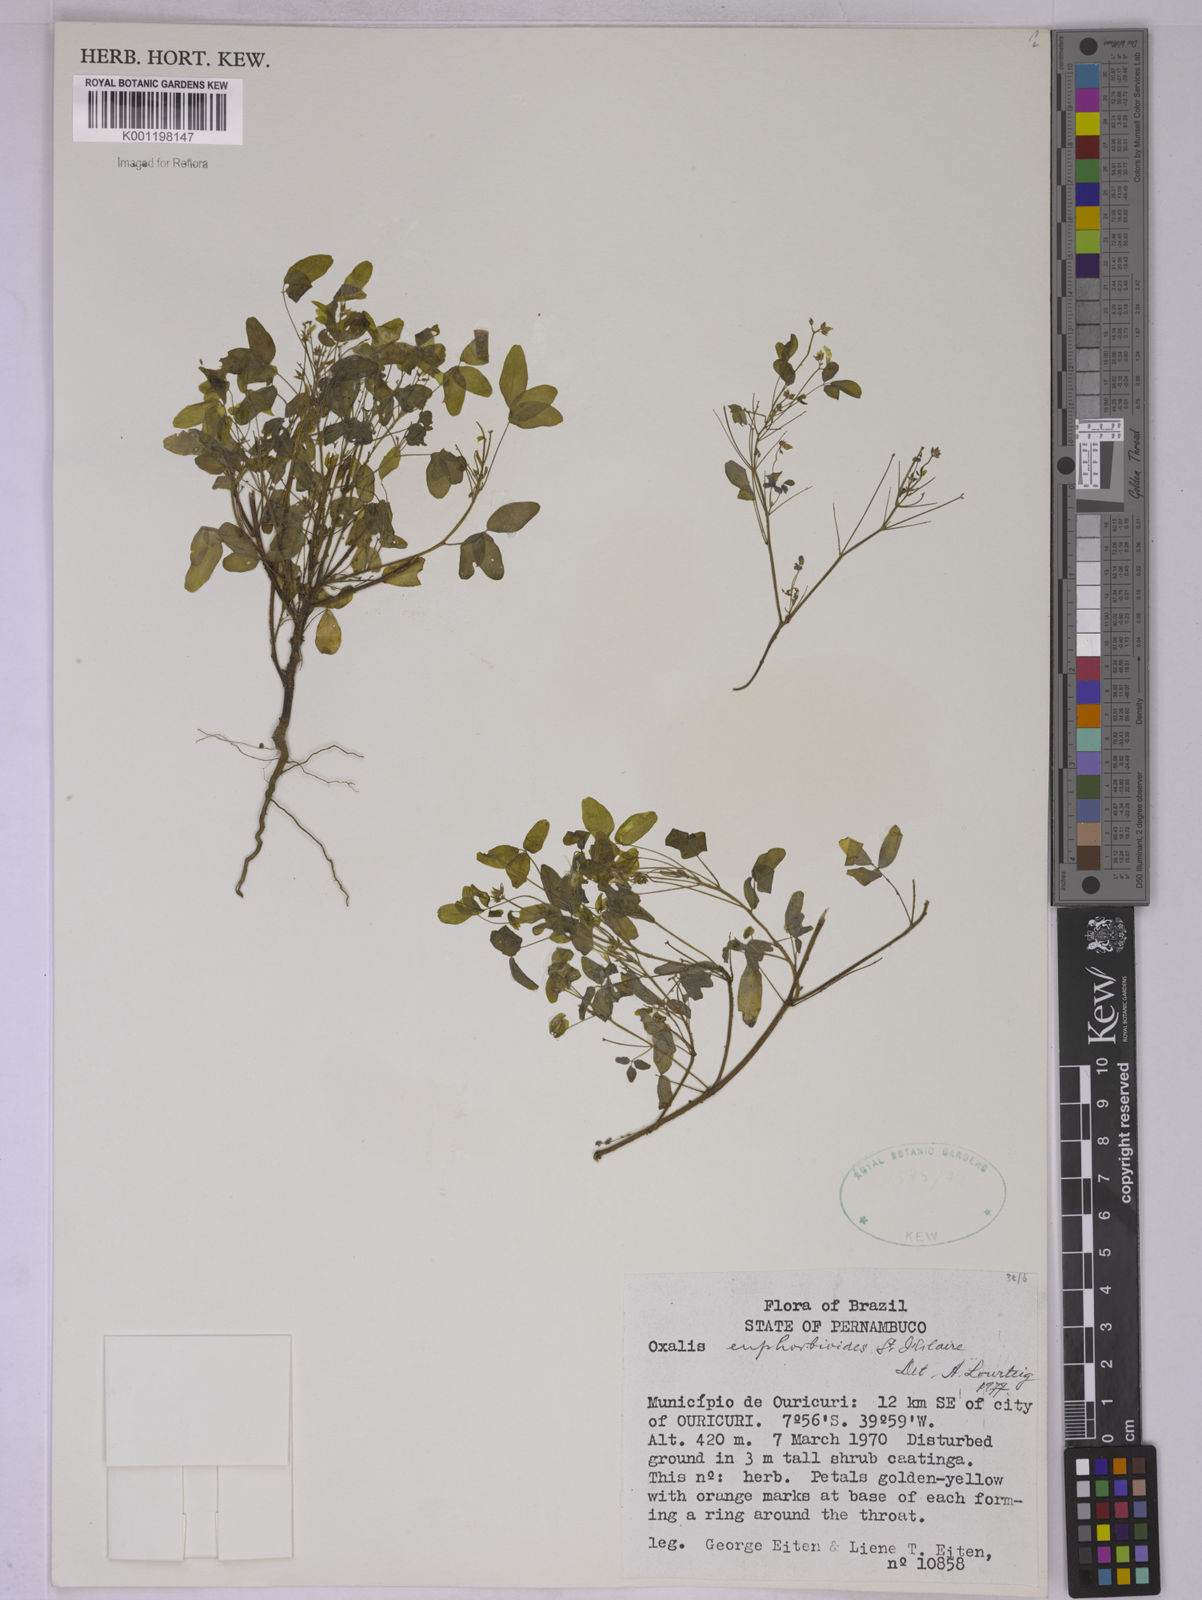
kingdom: Plantae
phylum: Tracheophyta
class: Magnoliopsida
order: Oxalidales
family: Oxalidaceae
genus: Oxalis
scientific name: Oxalis divaricata
